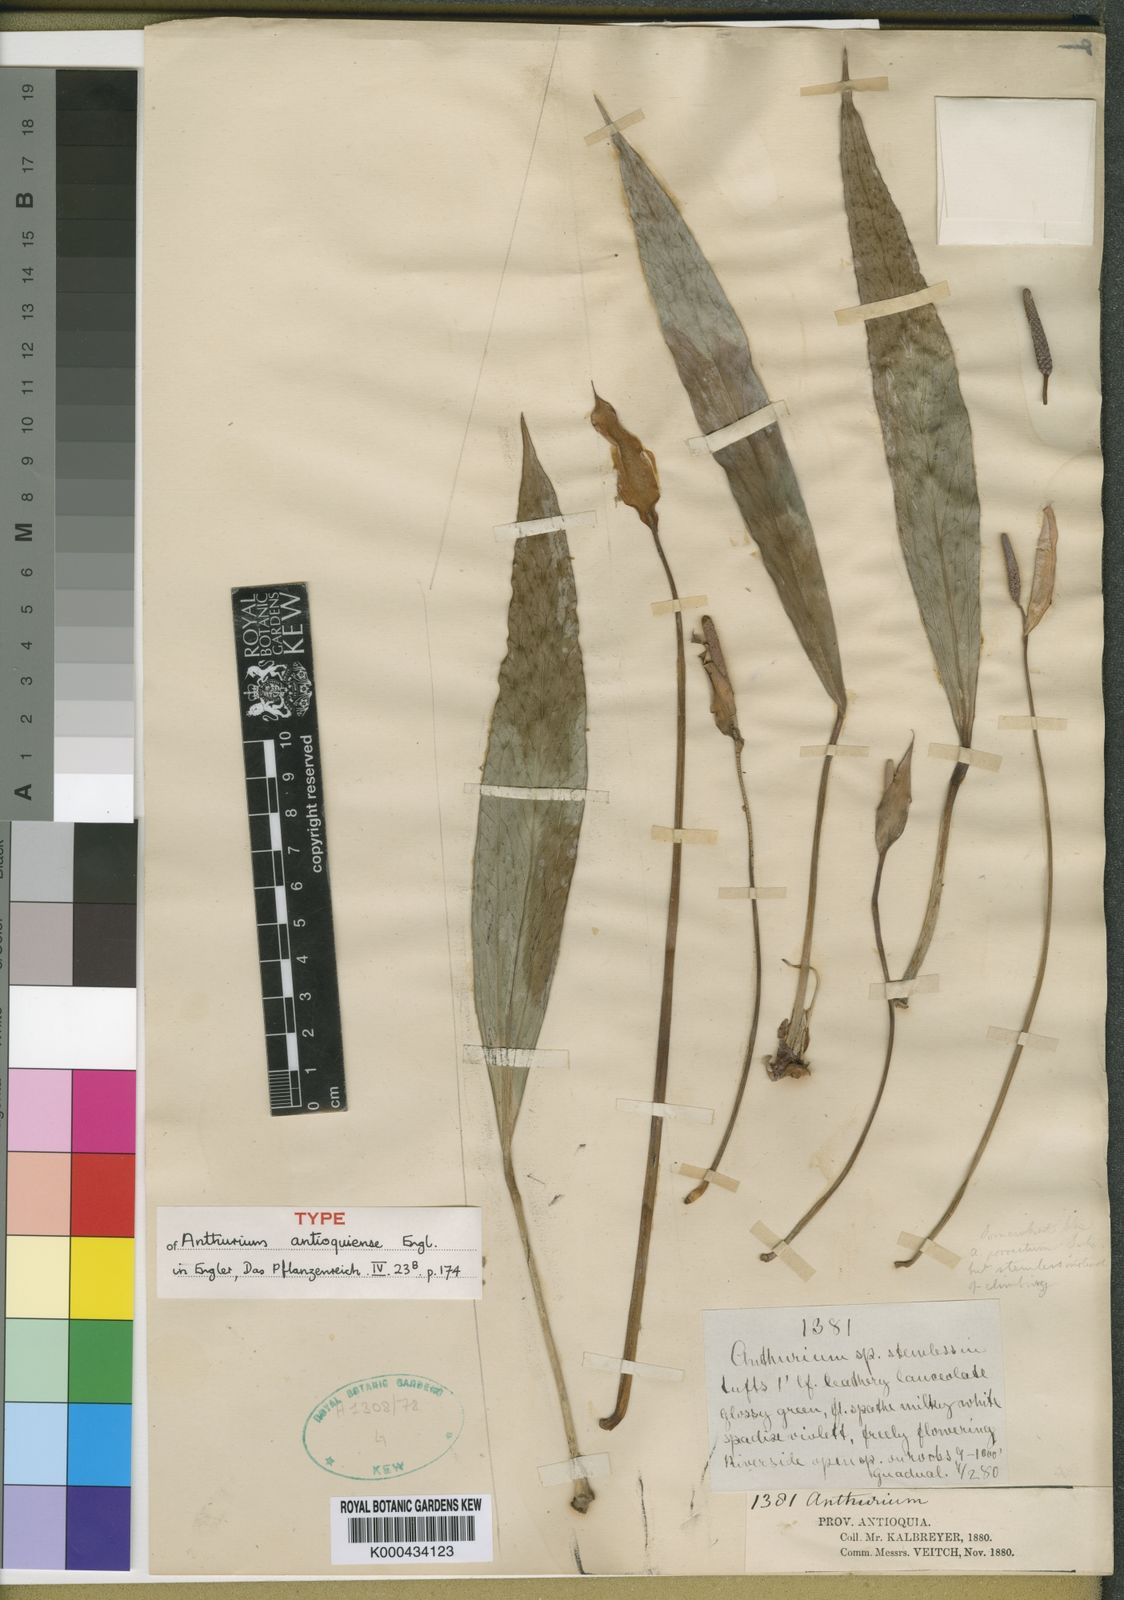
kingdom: Plantae
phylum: Tracheophyta
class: Liliopsida
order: Alismatales
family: Araceae
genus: Anthurium
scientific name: Anthurium antioquiense
